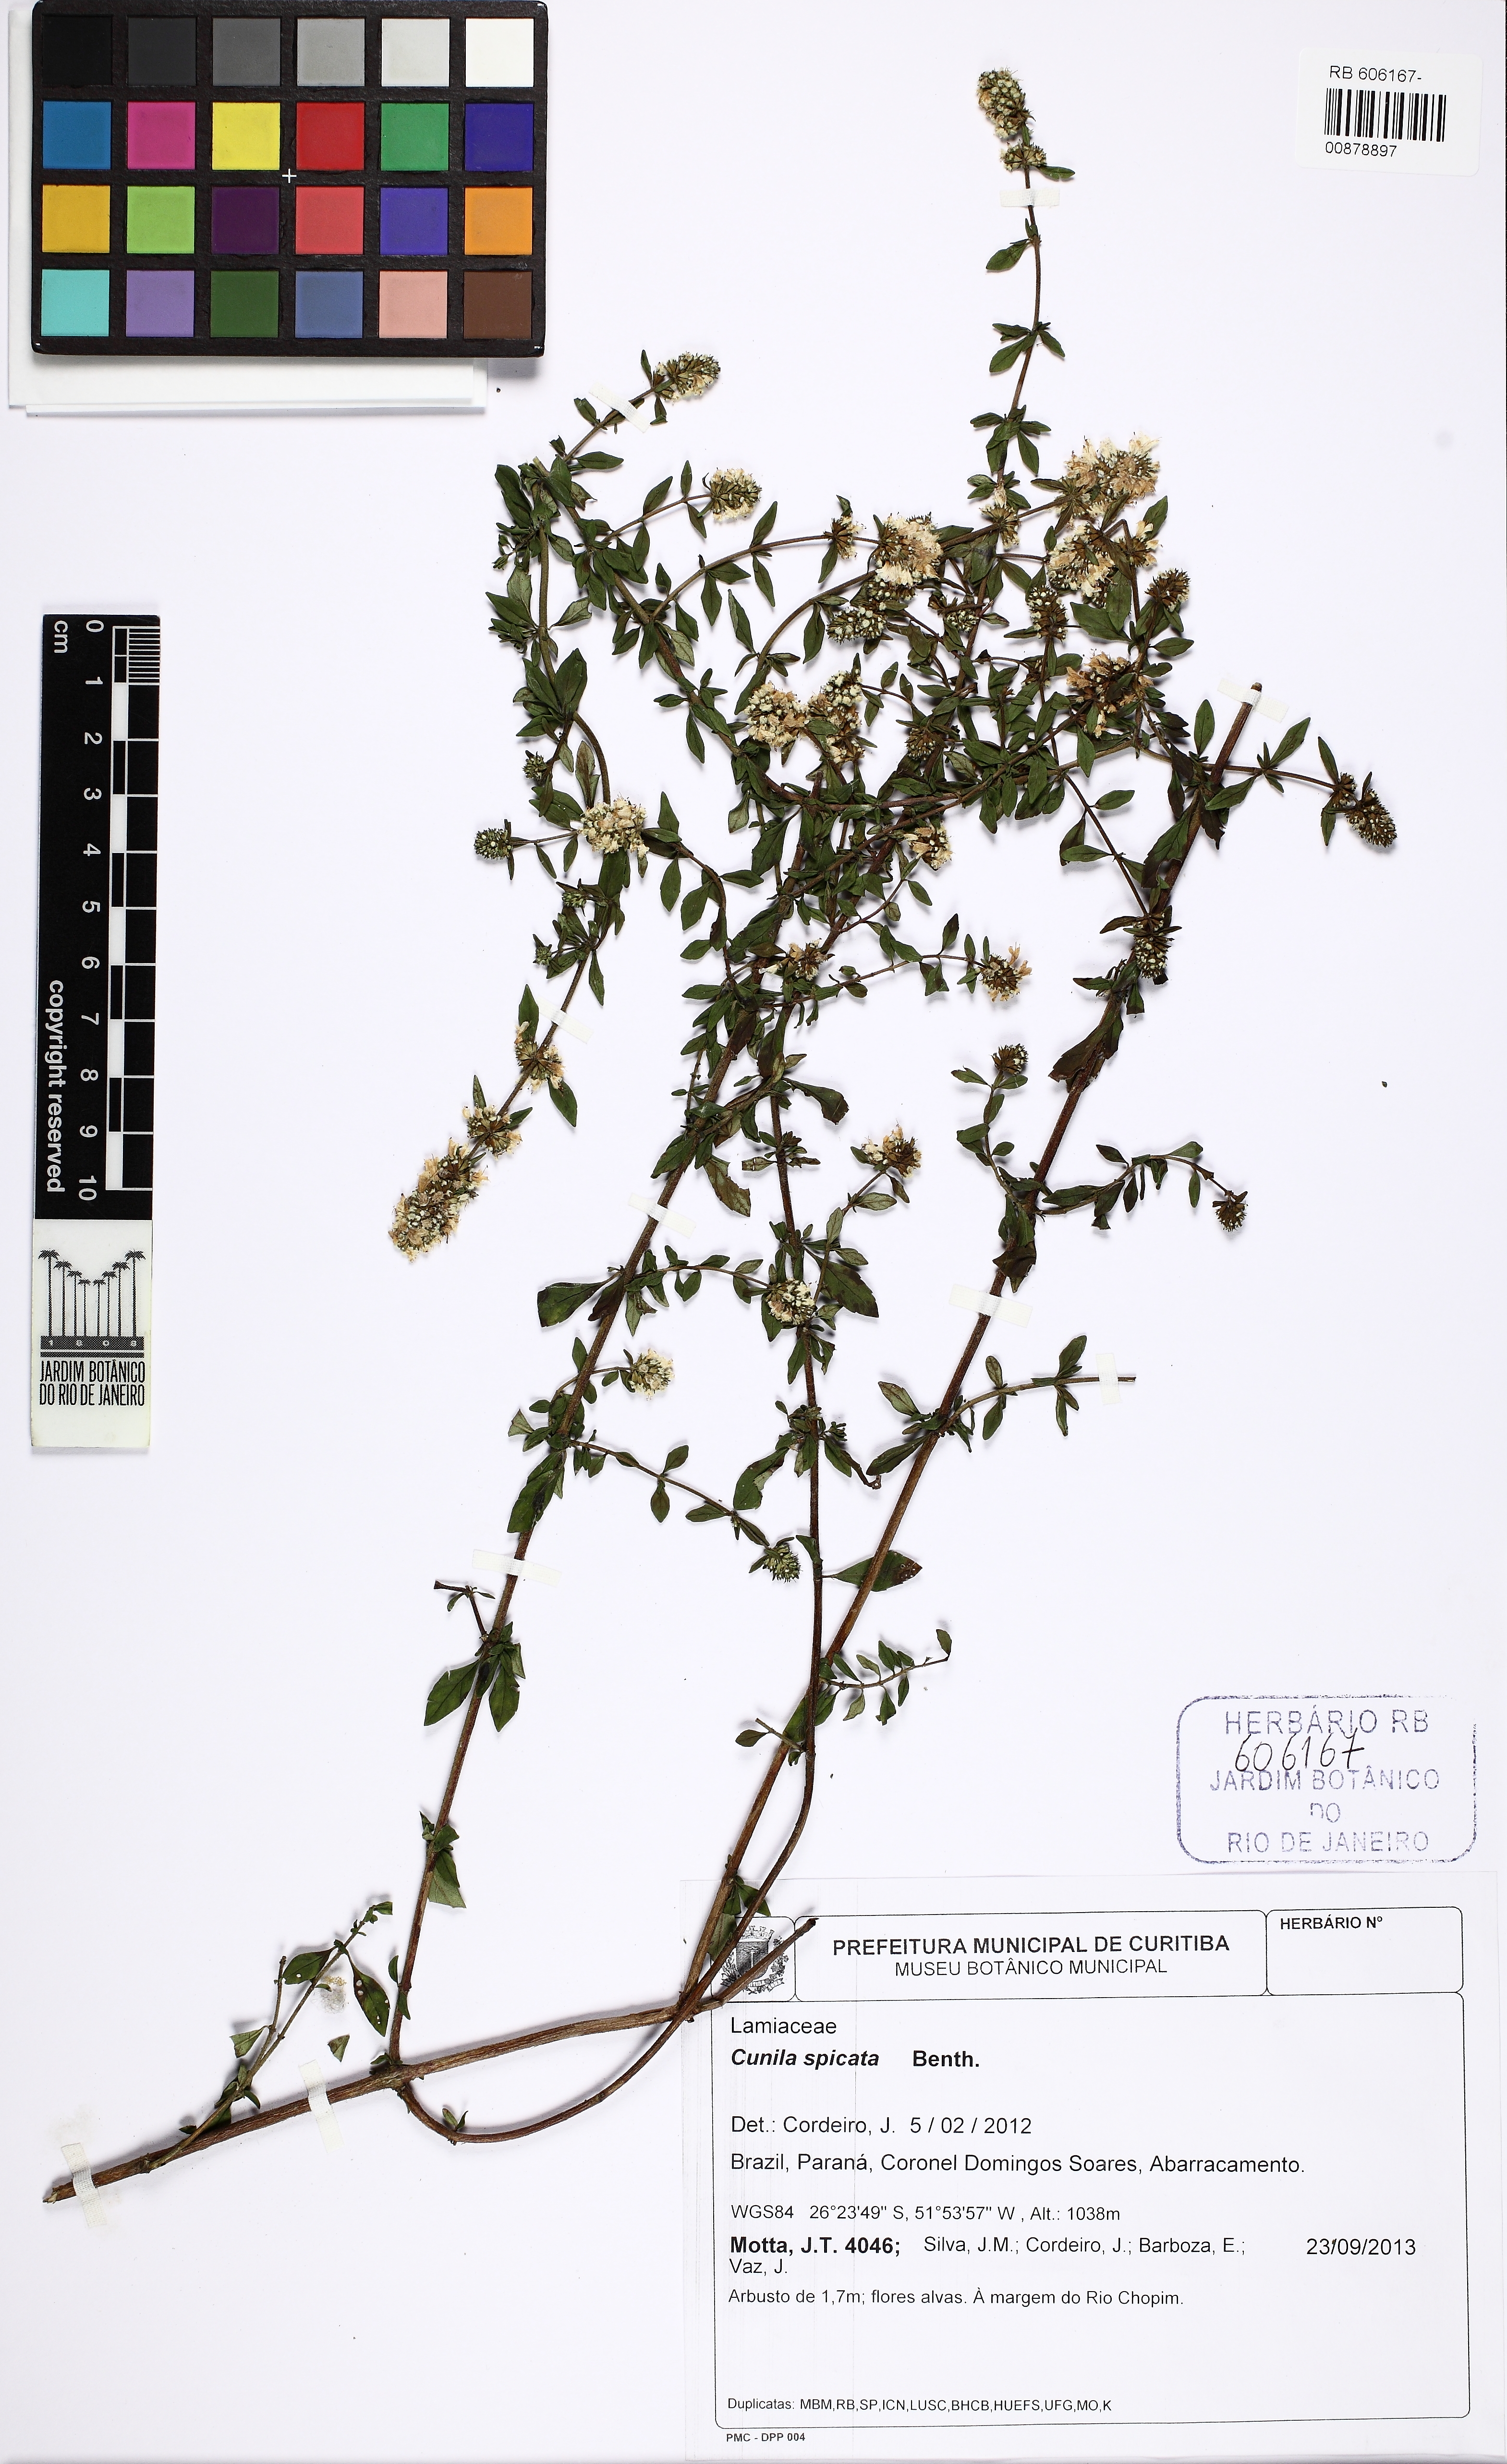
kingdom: Plantae
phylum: Tracheophyta
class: Magnoliopsida
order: Lamiales
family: Lamiaceae
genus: Cunila
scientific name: Cunila spicata
